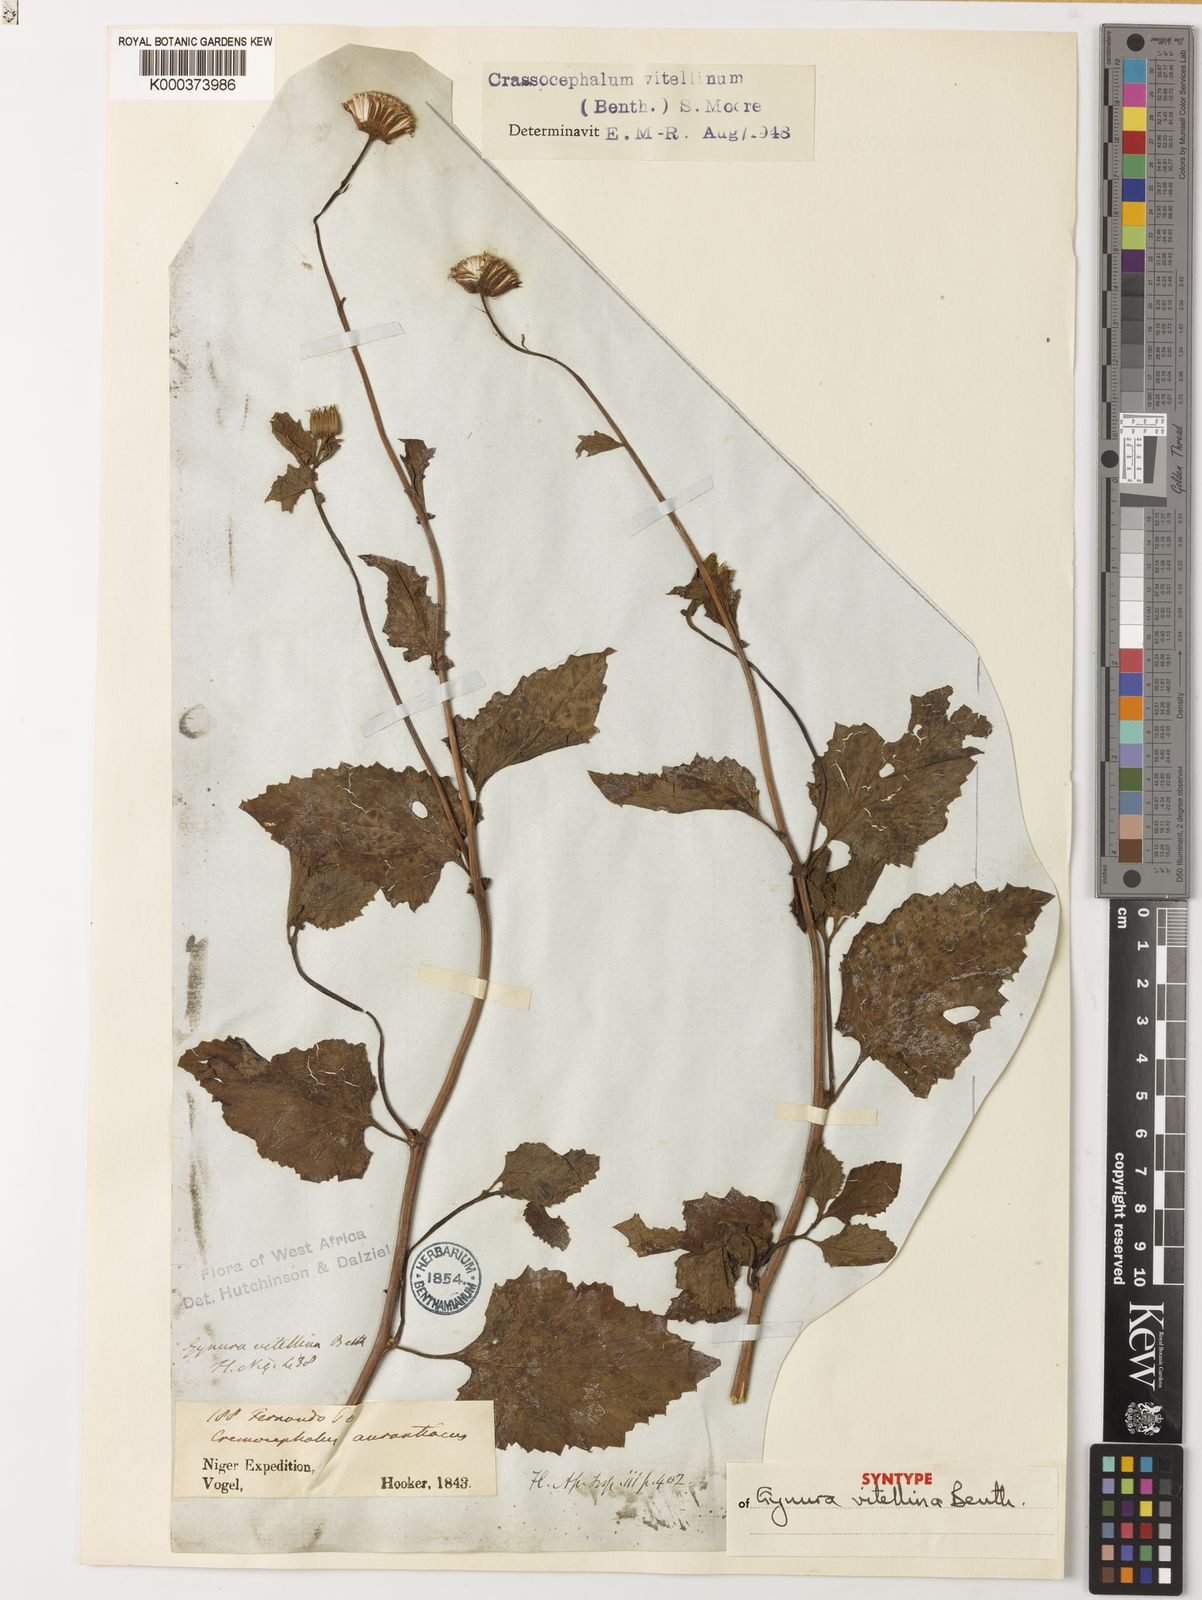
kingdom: Plantae
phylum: Tracheophyta
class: Magnoliopsida
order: Asterales
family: Asteraceae
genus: Crassocephalum
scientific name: Crassocephalum vitellinum
